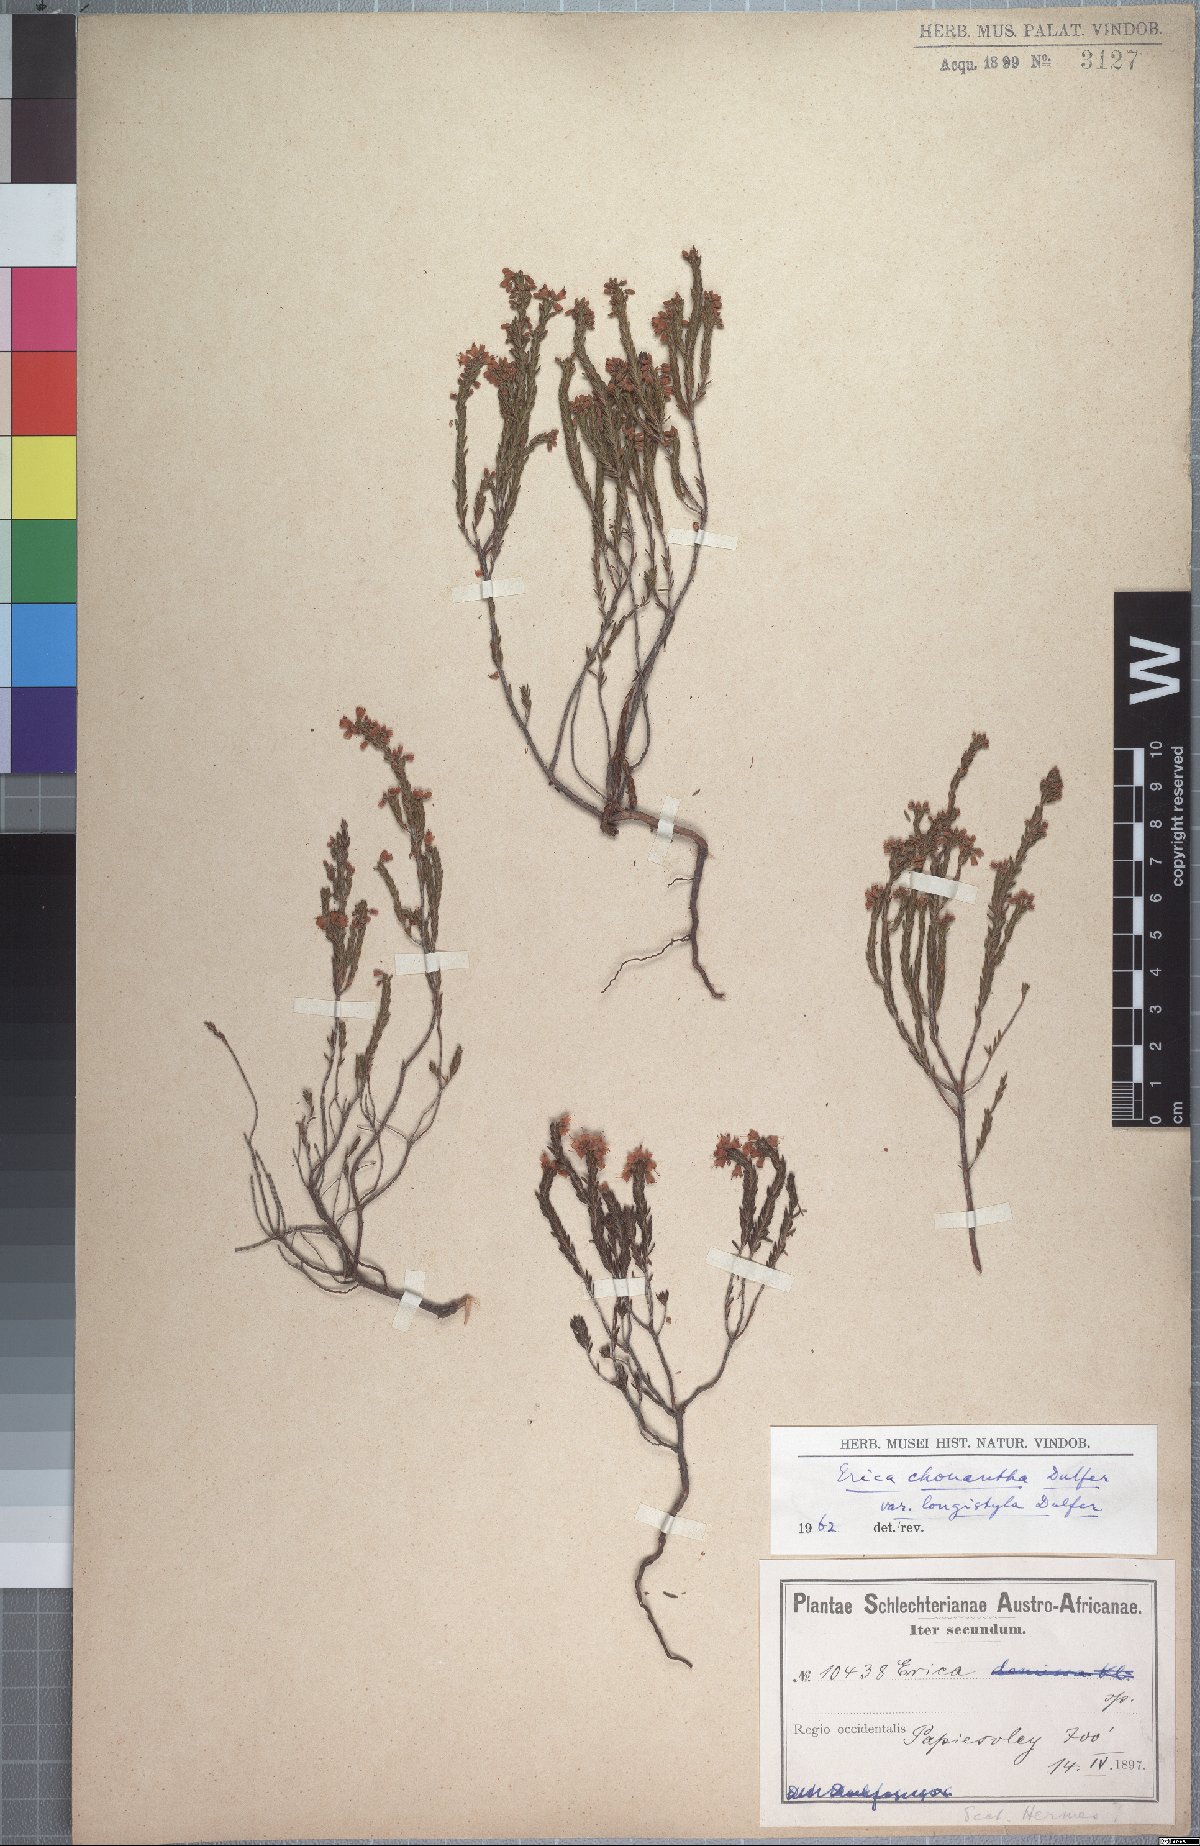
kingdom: Plantae
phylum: Tracheophyta
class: Magnoliopsida
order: Ericales
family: Ericaceae
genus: Erica
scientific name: Erica chonantha
